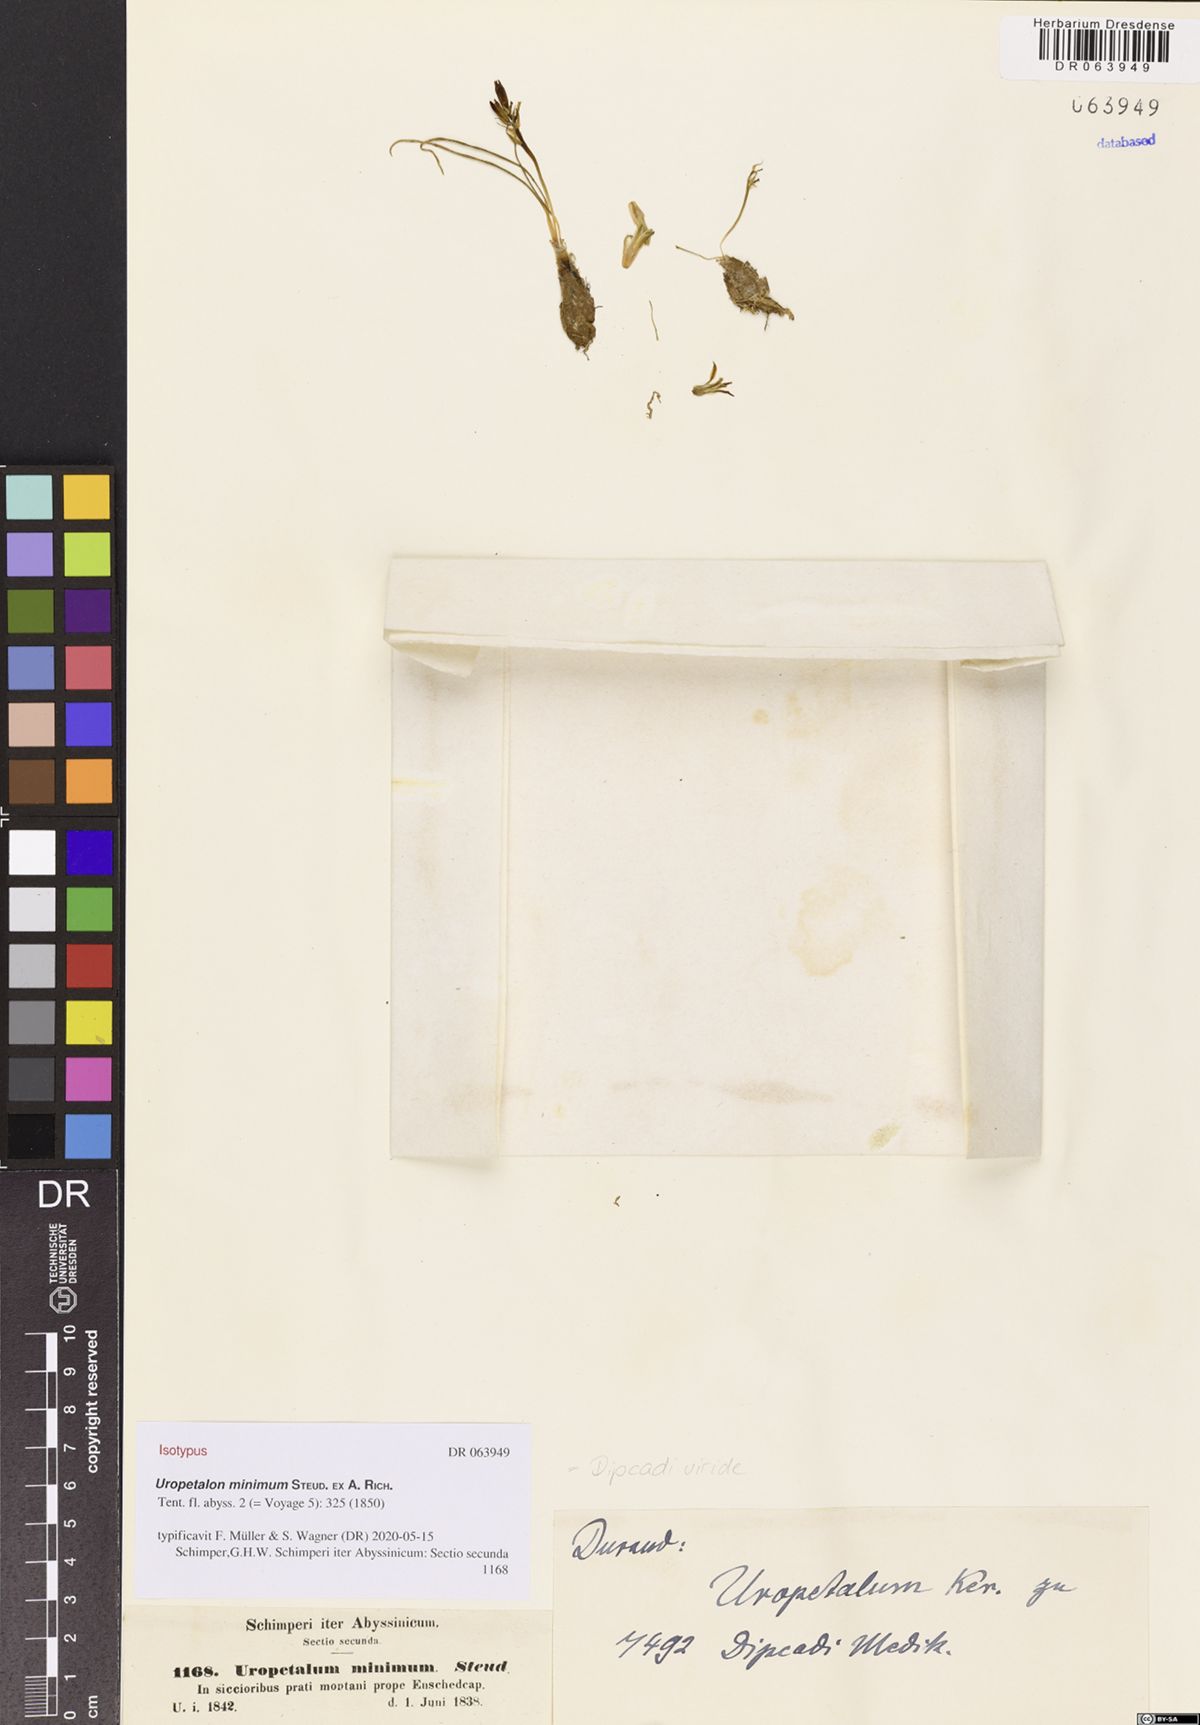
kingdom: Plantae
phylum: Tracheophyta
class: Liliopsida
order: Asparagales
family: Asparagaceae
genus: Dipcadi
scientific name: Dipcadi viride
